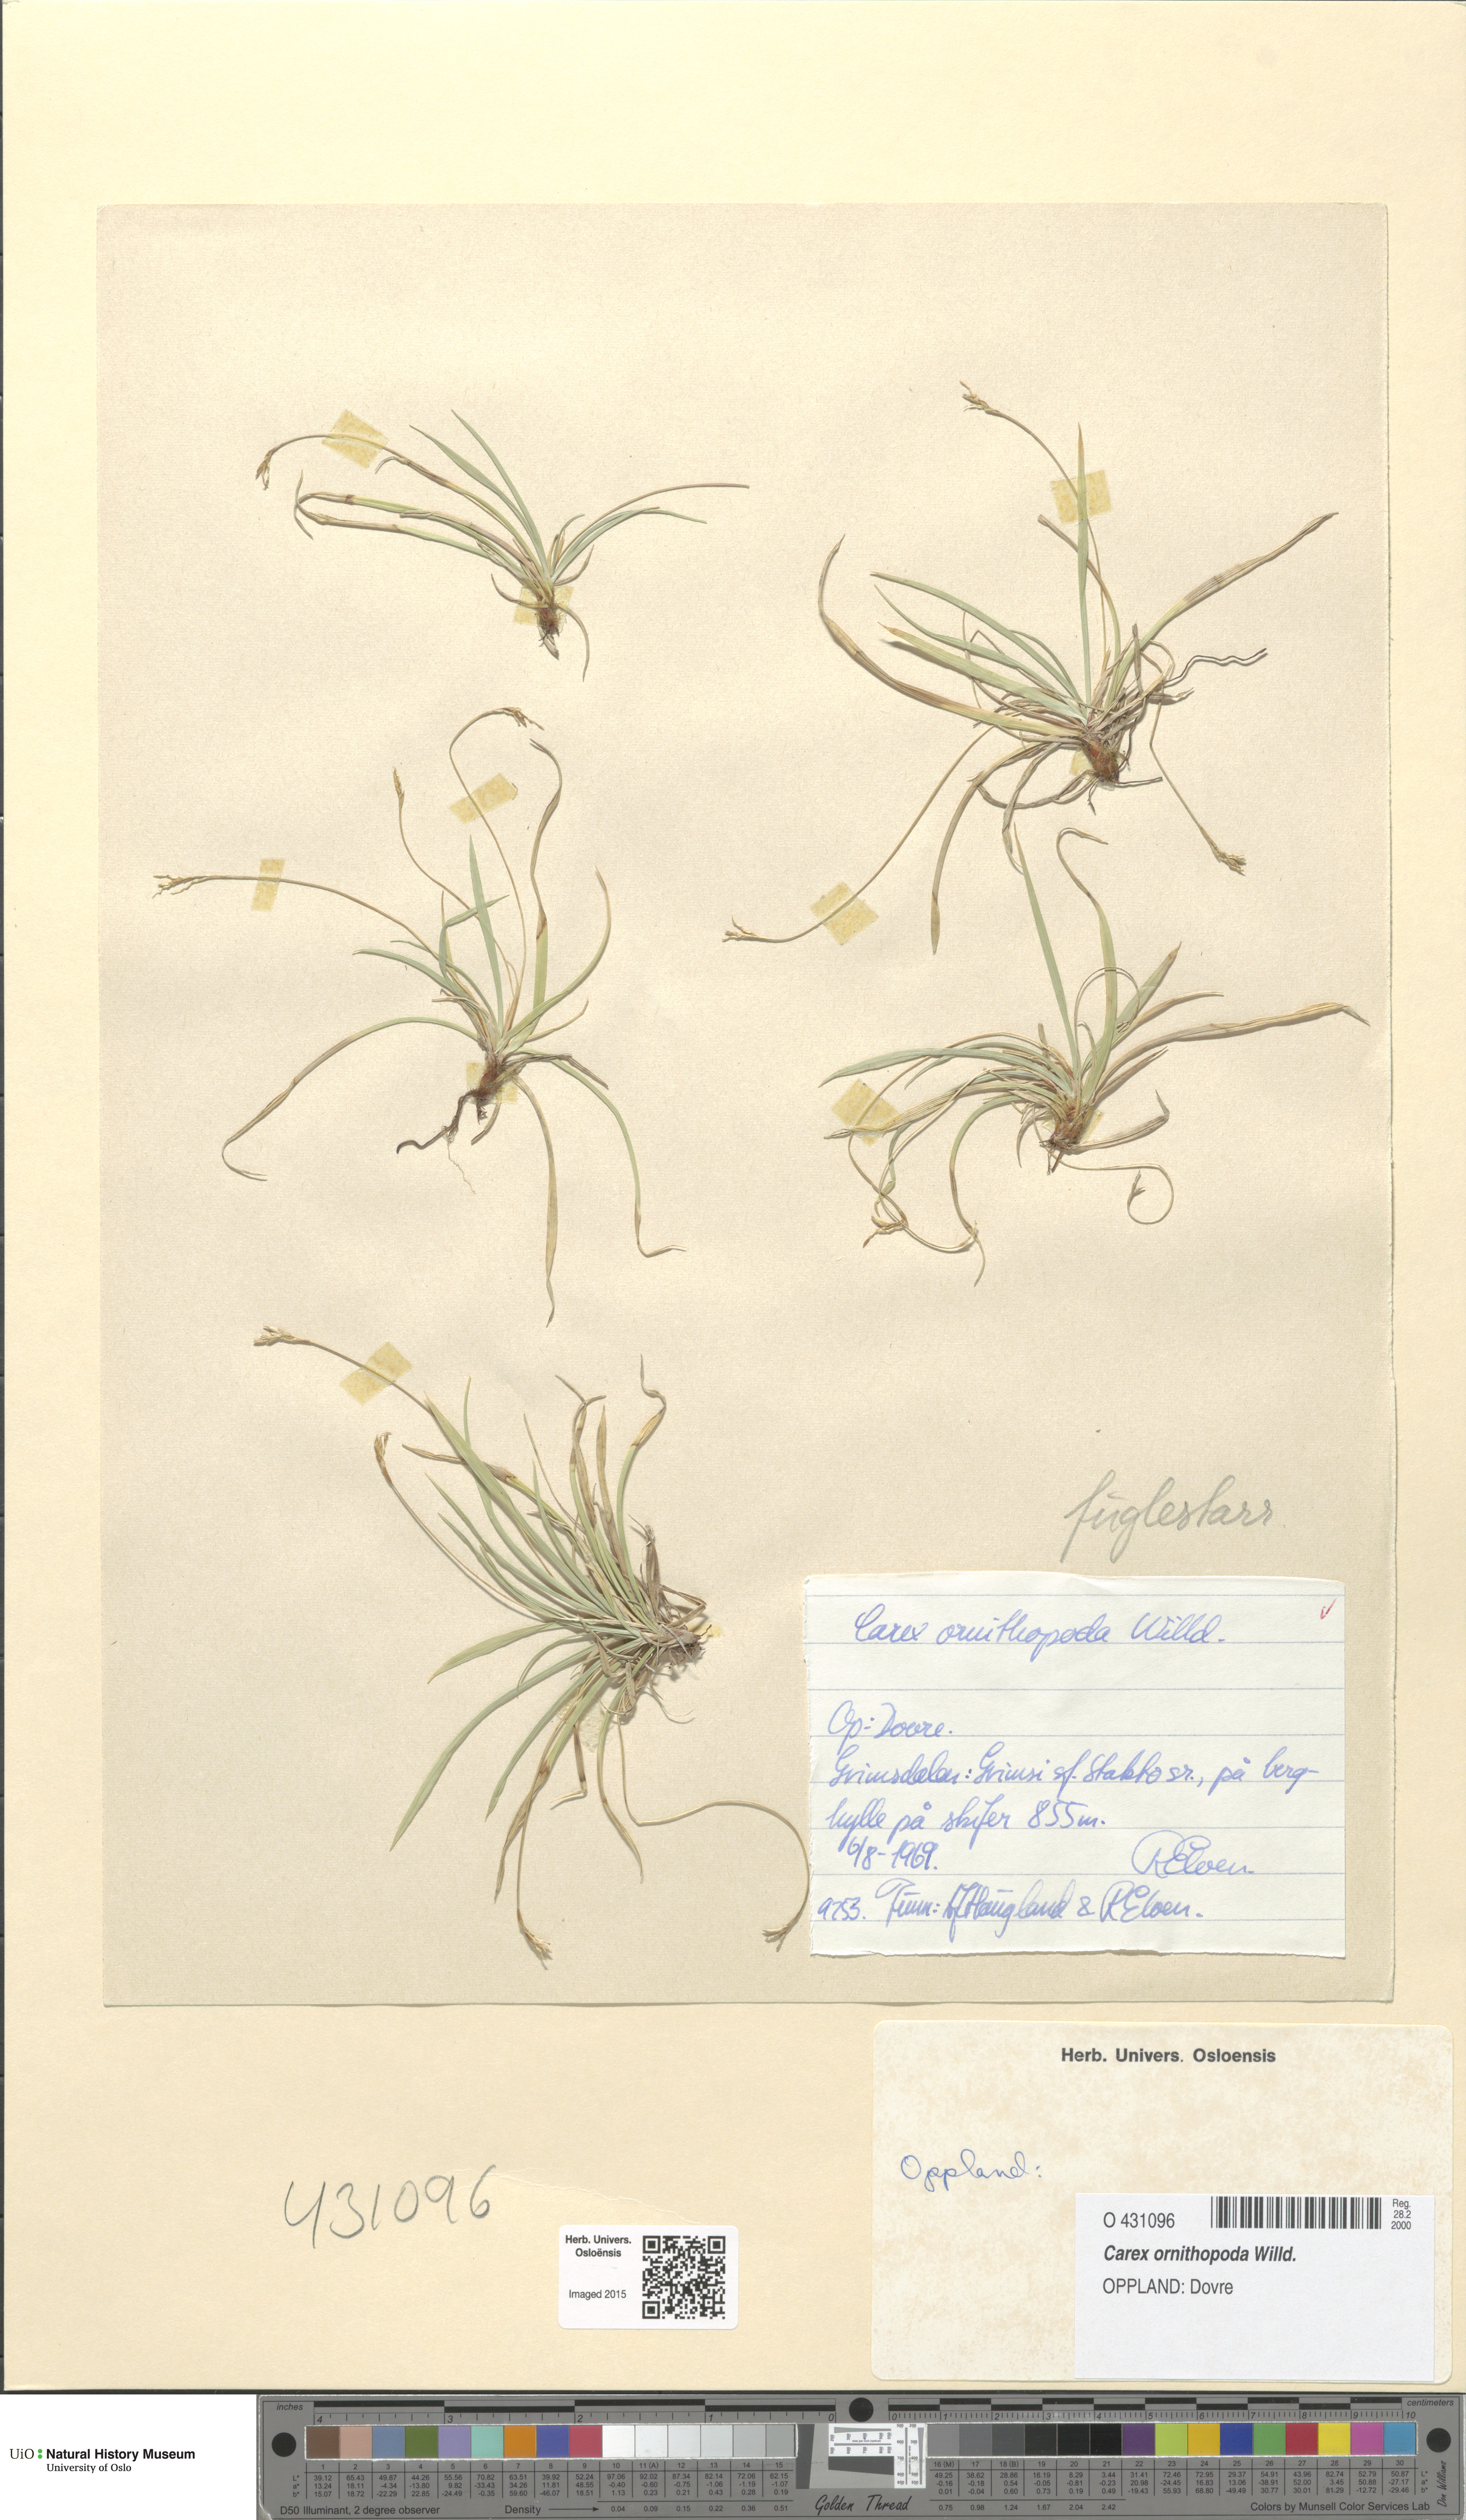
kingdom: Plantae
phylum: Tracheophyta
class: Liliopsida
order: Poales
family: Cyperaceae
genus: Carex
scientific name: Carex ornithopoda
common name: Bird's-foot sedge
